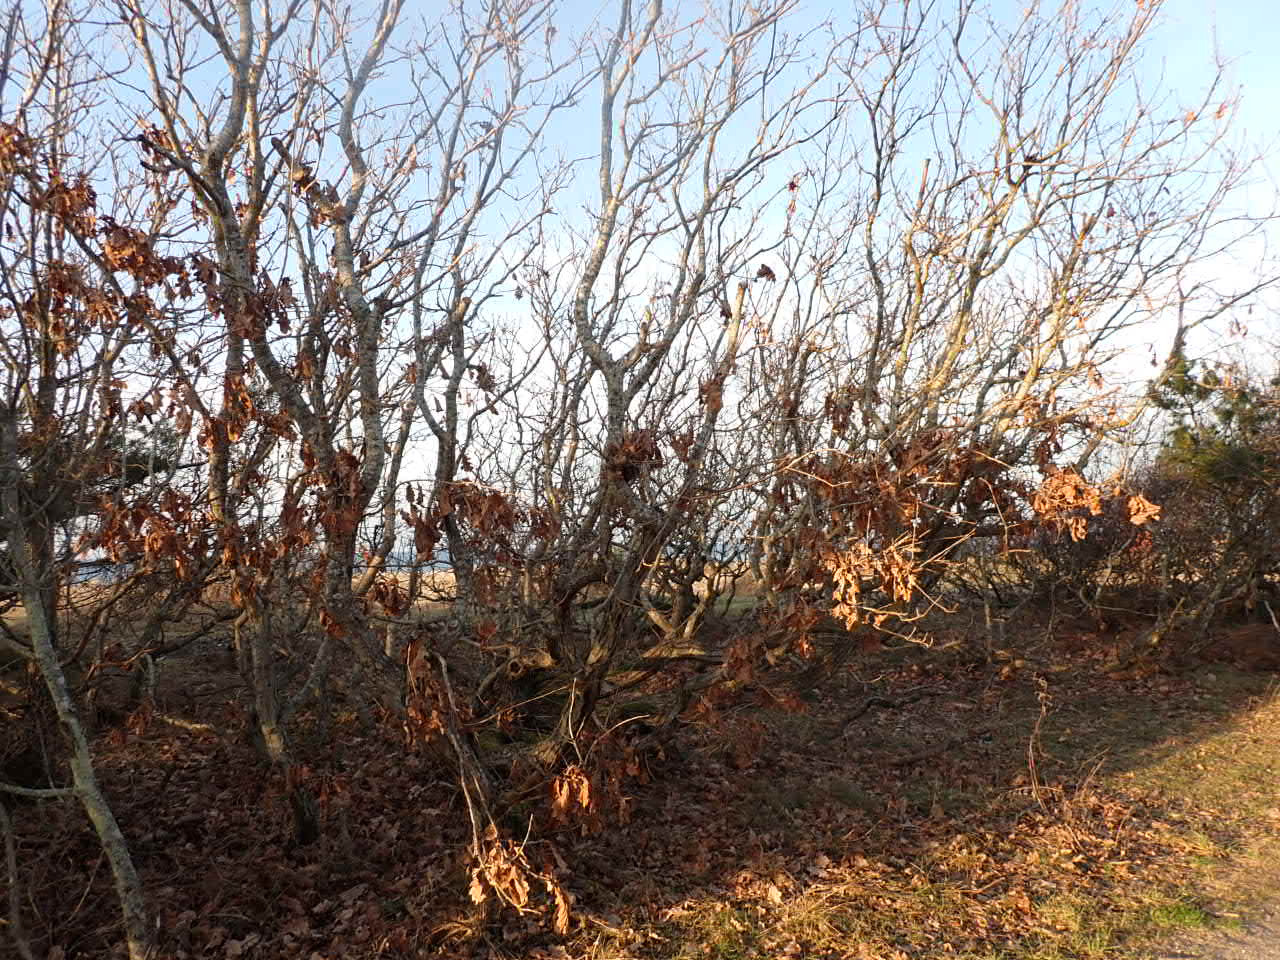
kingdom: Plantae
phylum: Tracheophyta
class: Magnoliopsida
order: Fagales
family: Fagaceae
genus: Quercus
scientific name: Quercus robur
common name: Stilk-eg/almindelig eg
